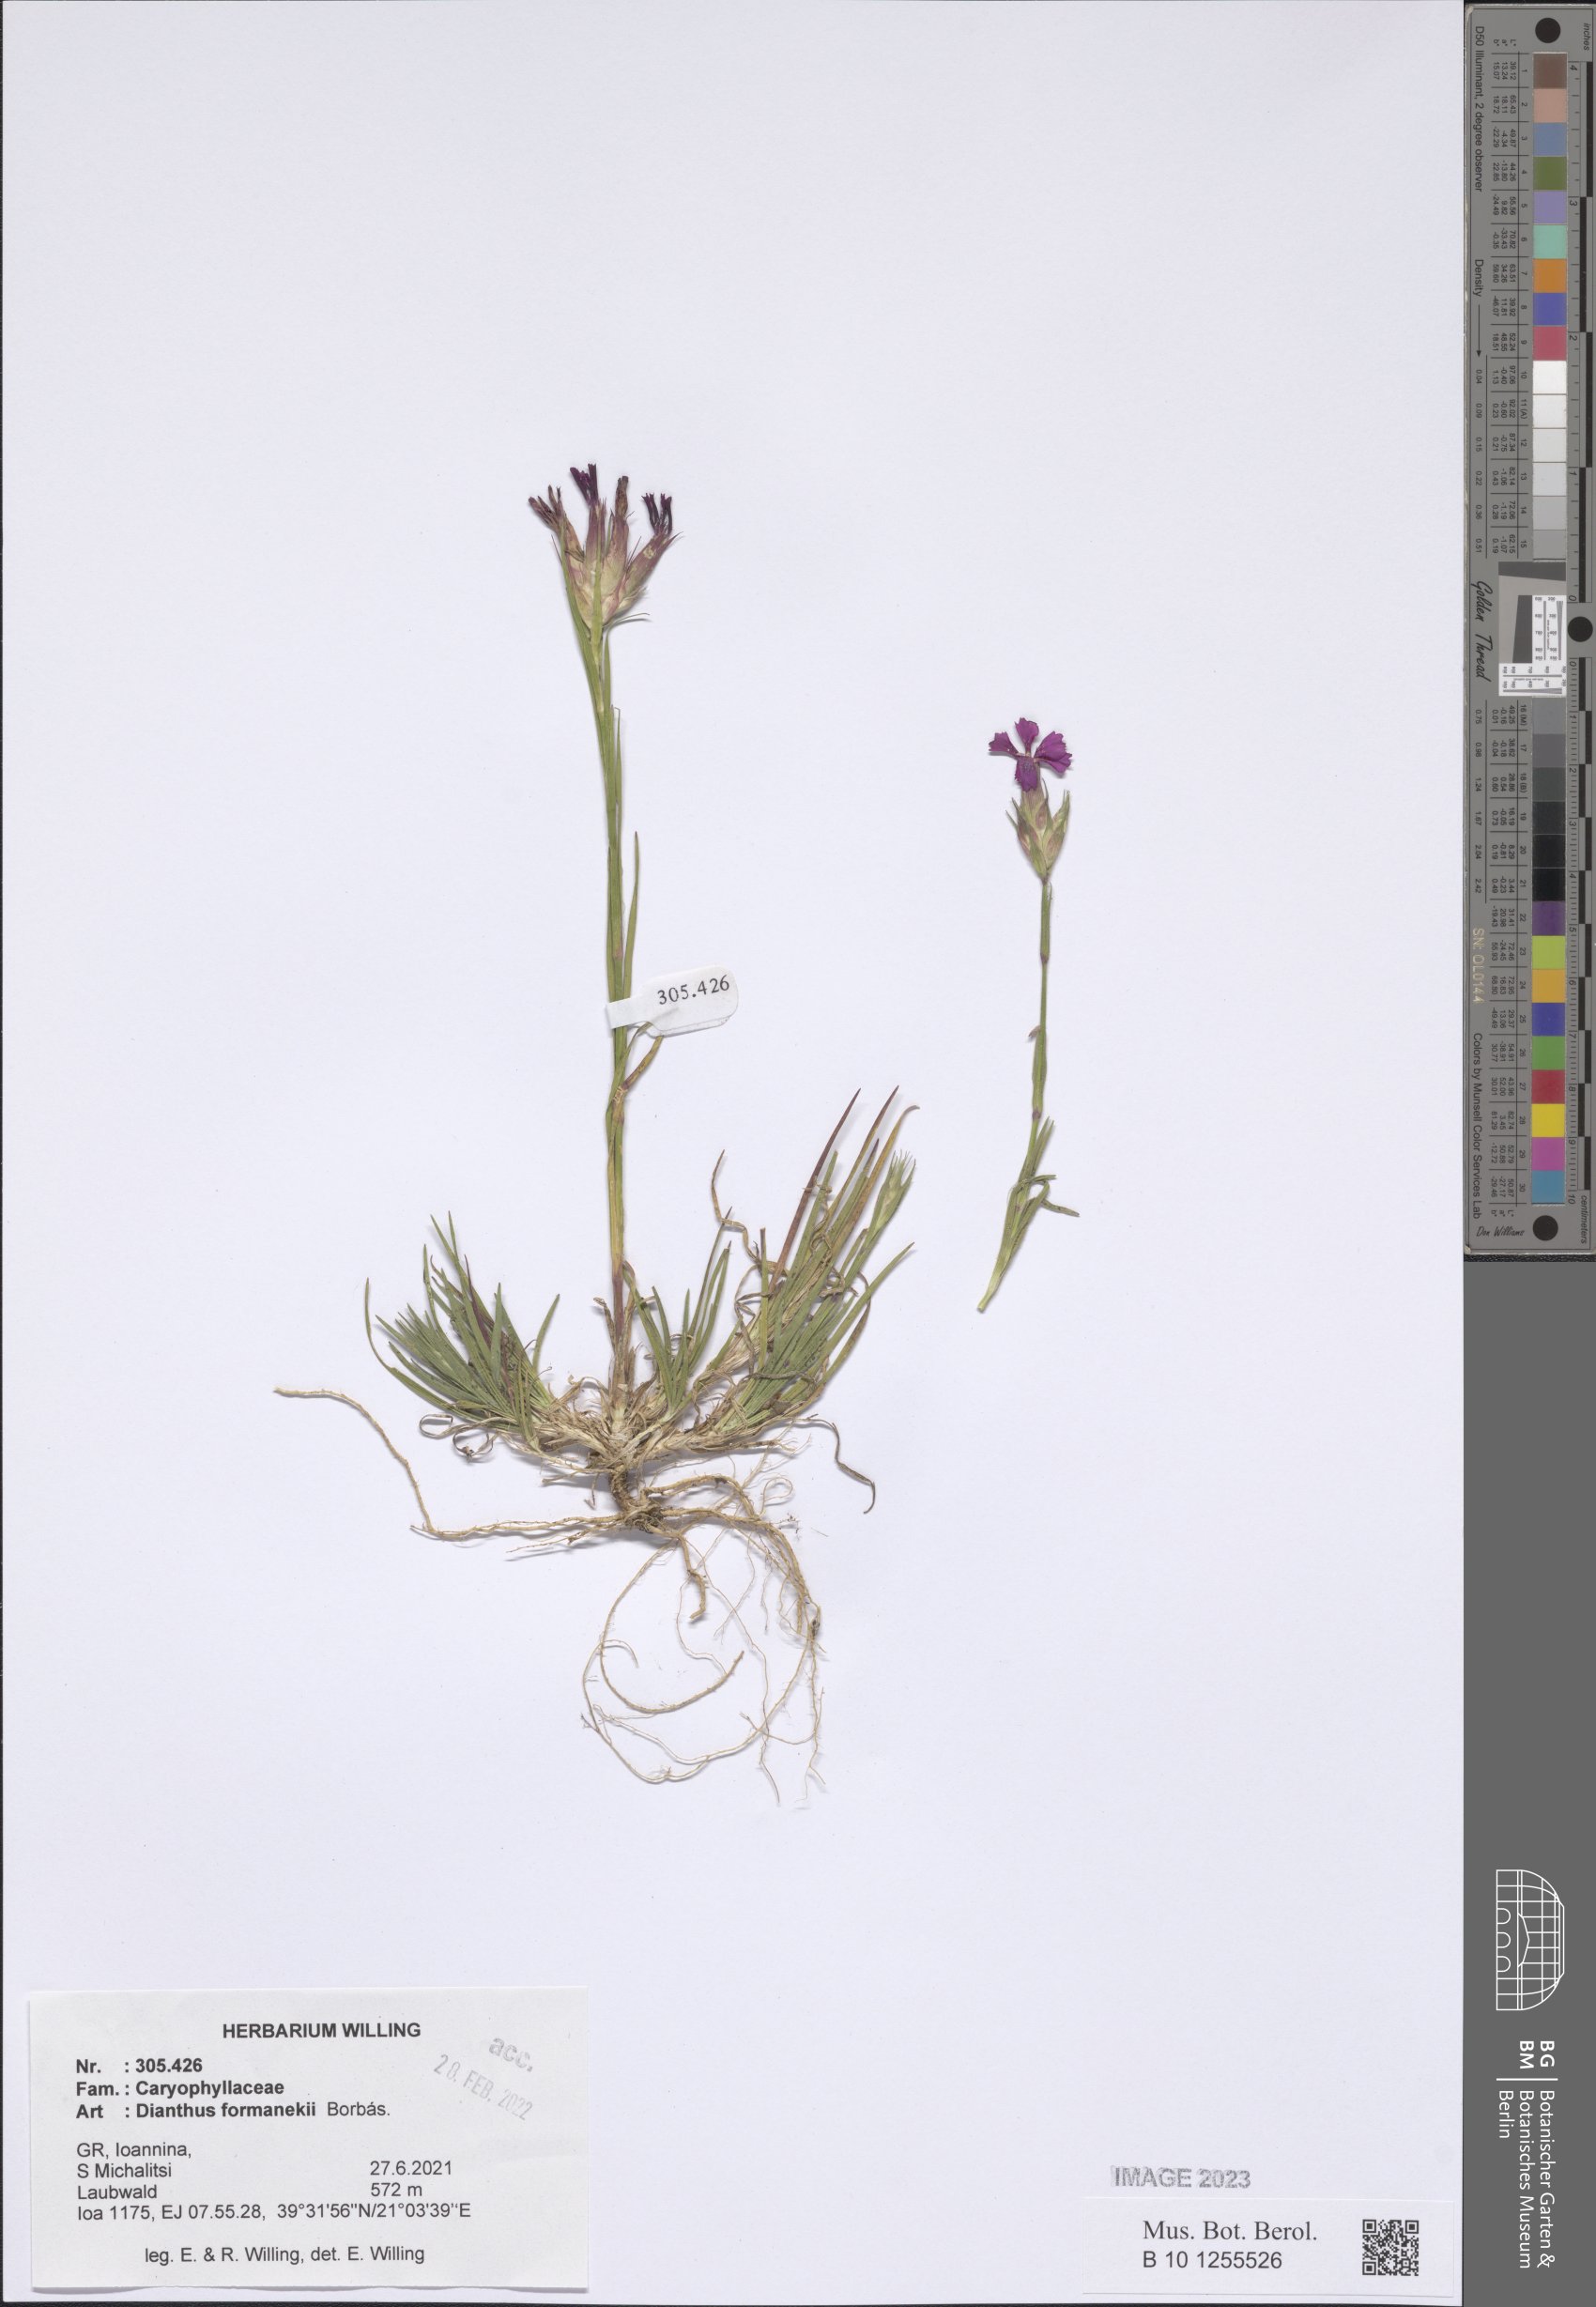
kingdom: Plantae
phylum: Tracheophyta
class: Magnoliopsida
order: Caryophyllales
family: Caryophyllaceae
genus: Dianthus
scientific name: Dianthus formanekii
